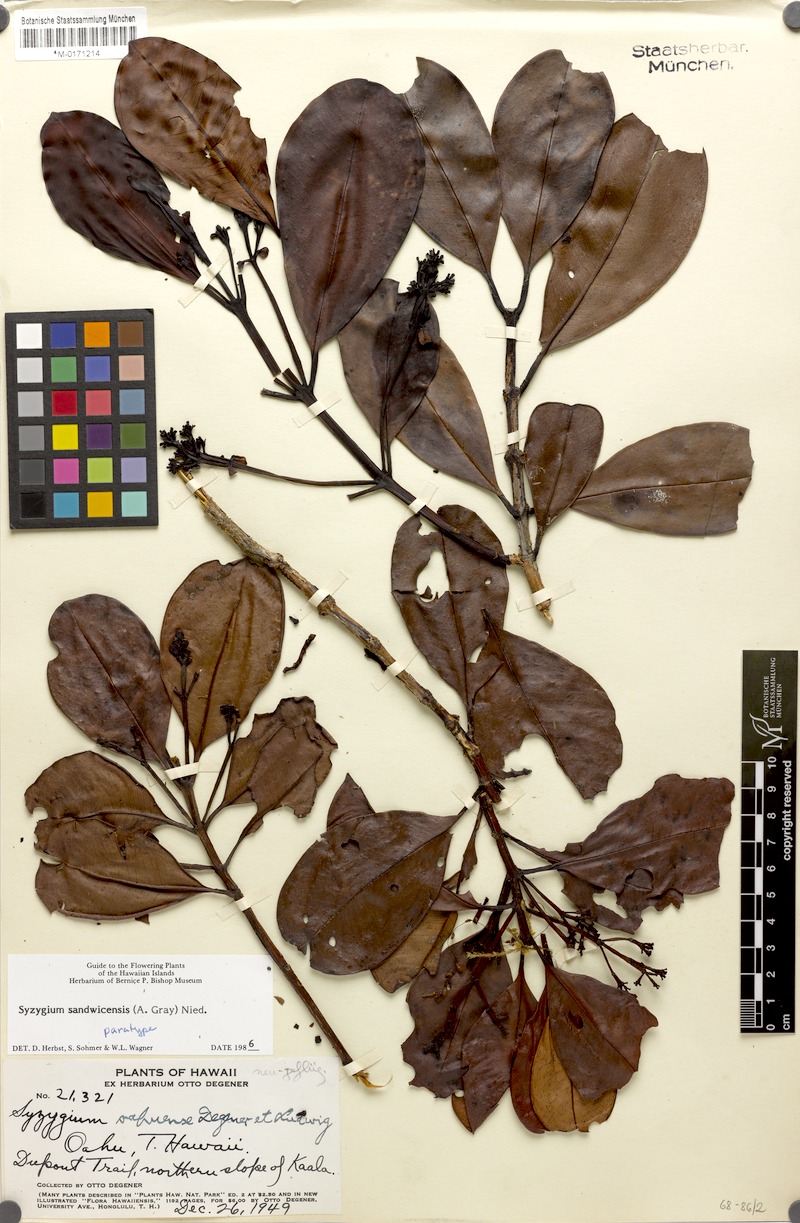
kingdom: Plantae
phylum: Tracheophyta
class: Magnoliopsida
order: Myrtales
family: Myrtaceae
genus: Syzygium
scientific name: Syzygium sandwicense
